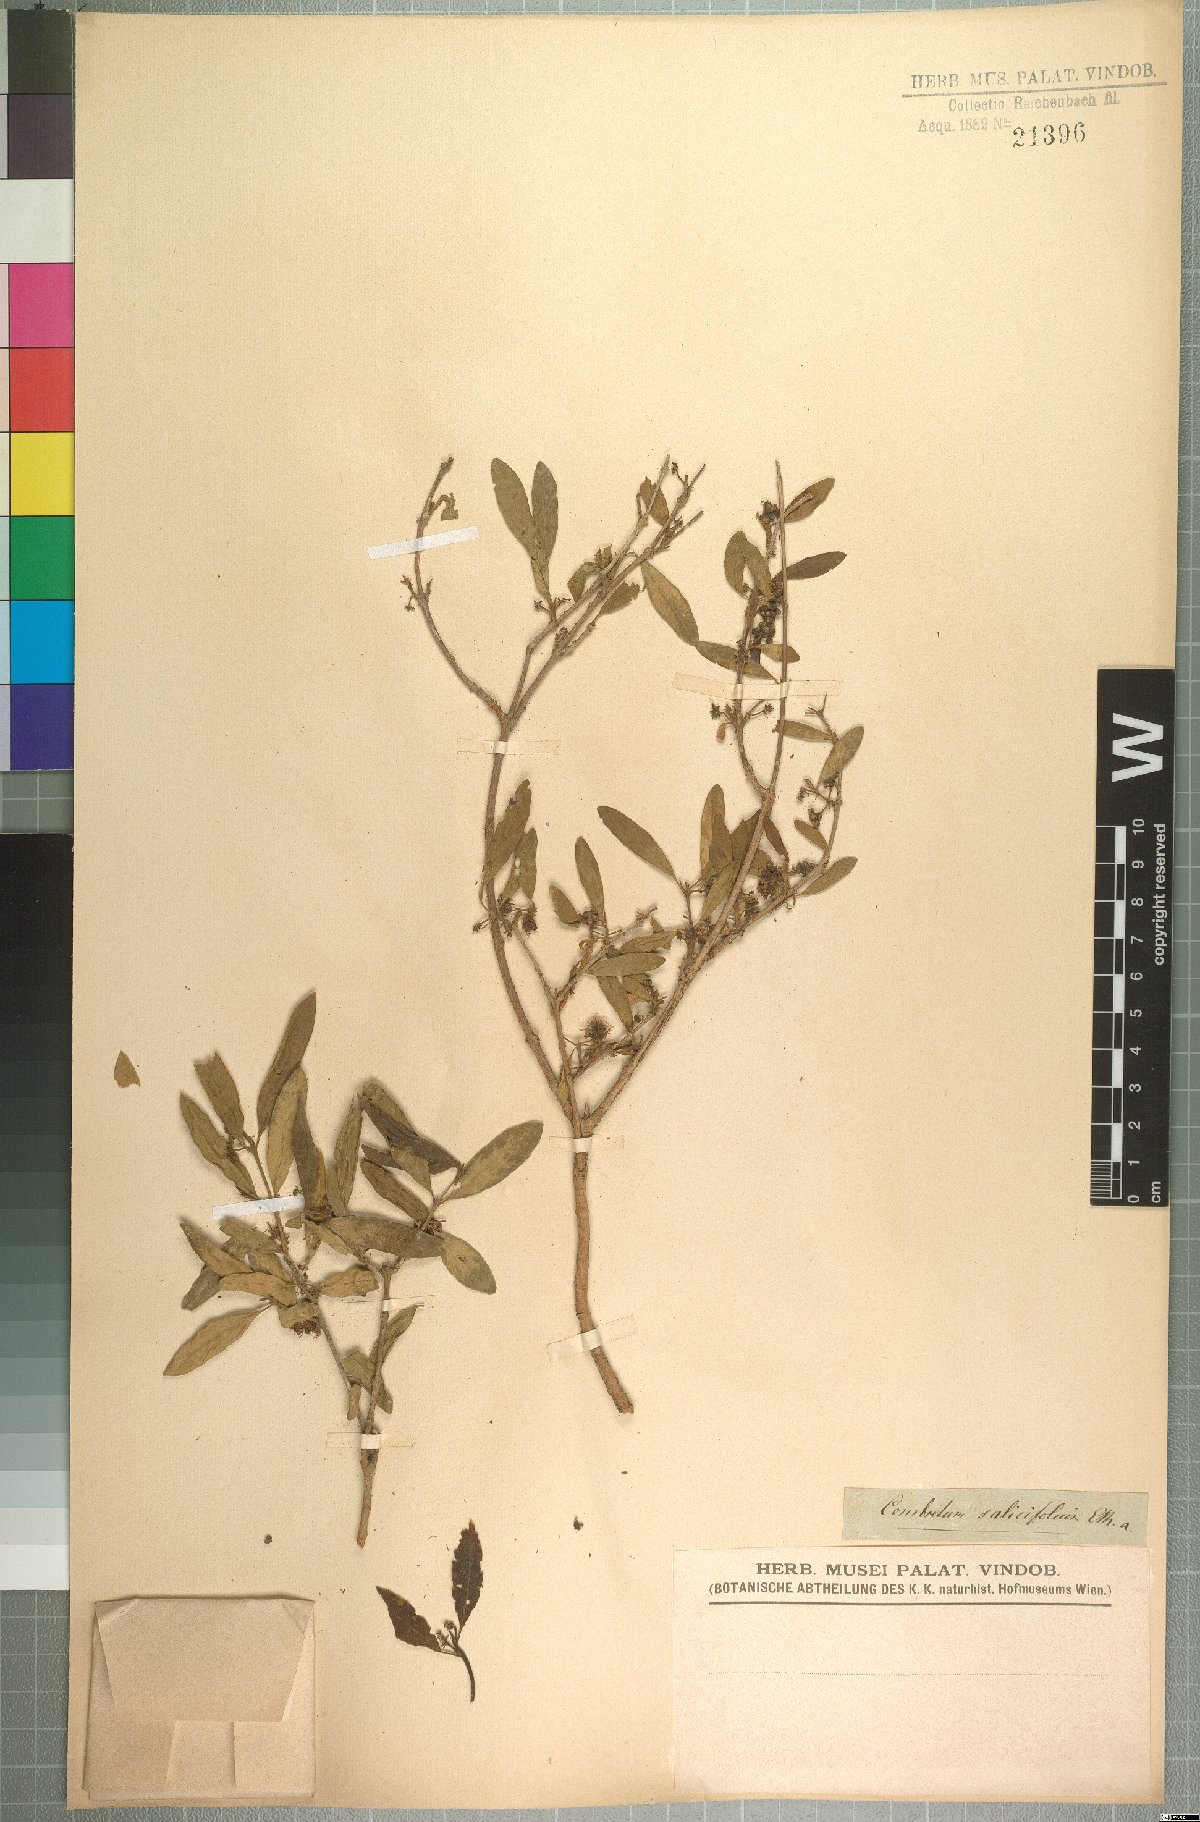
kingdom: Plantae
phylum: Tracheophyta
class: Magnoliopsida
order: Myrtales
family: Combretaceae
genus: Combretum
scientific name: Combretum caffrum
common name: Cape bushwillow
